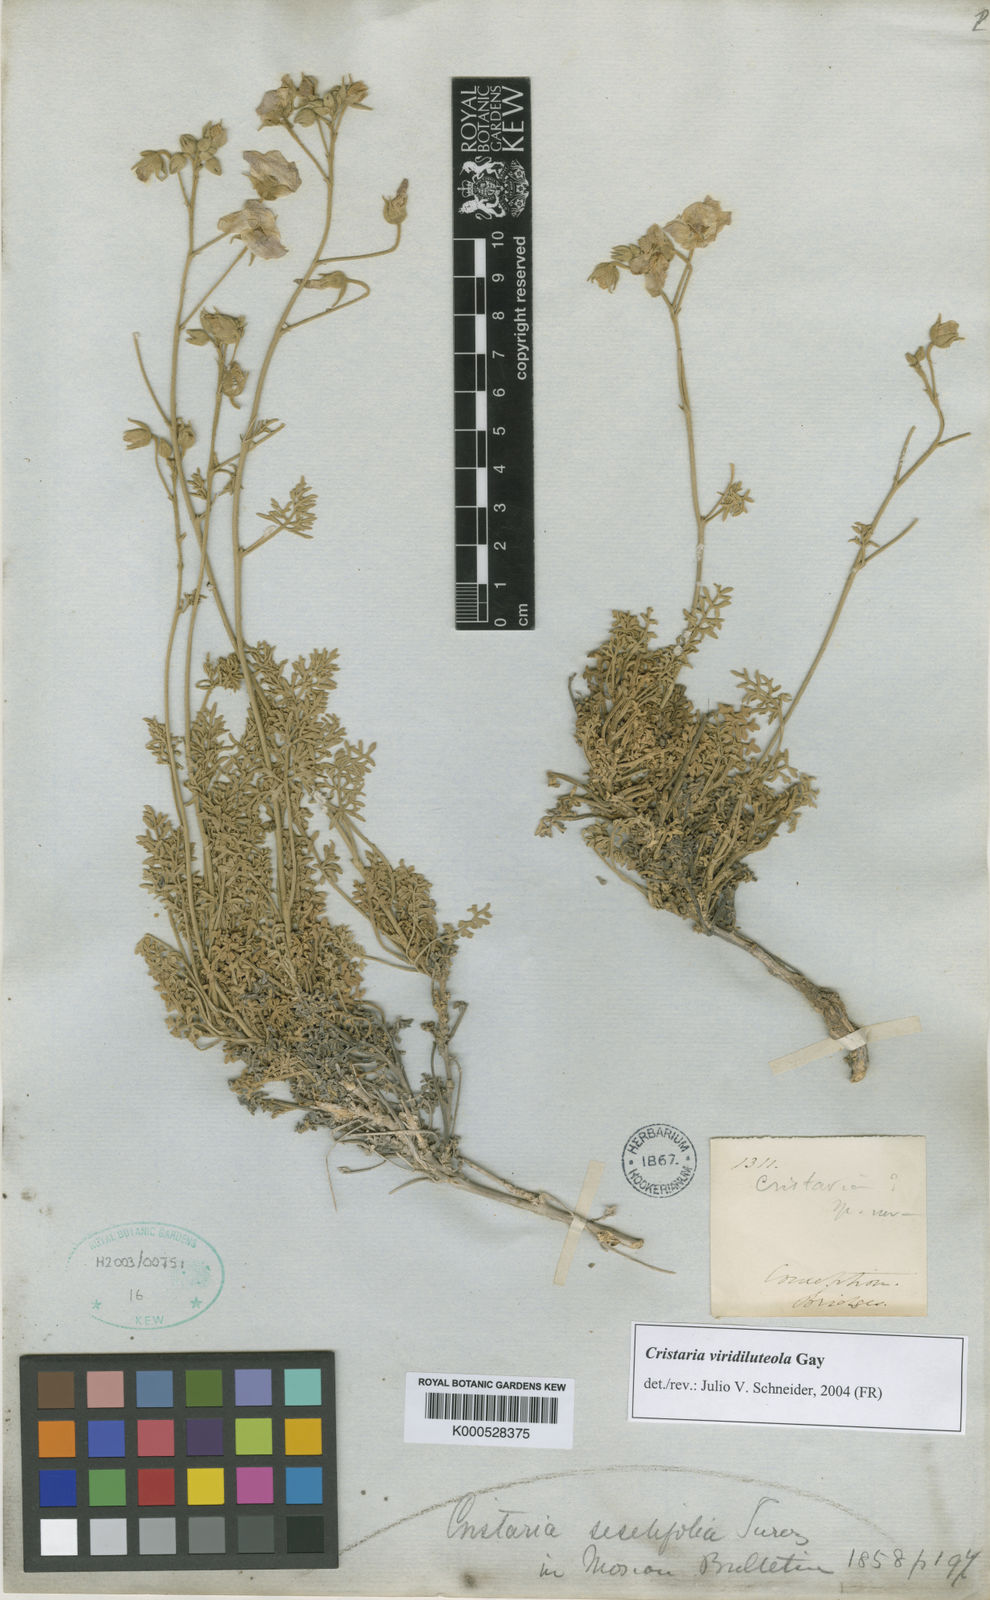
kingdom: Plantae
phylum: Tracheophyta
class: Magnoliopsida
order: Malvales
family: Malvaceae
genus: Cristaria
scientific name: Cristaria viridiluteola
